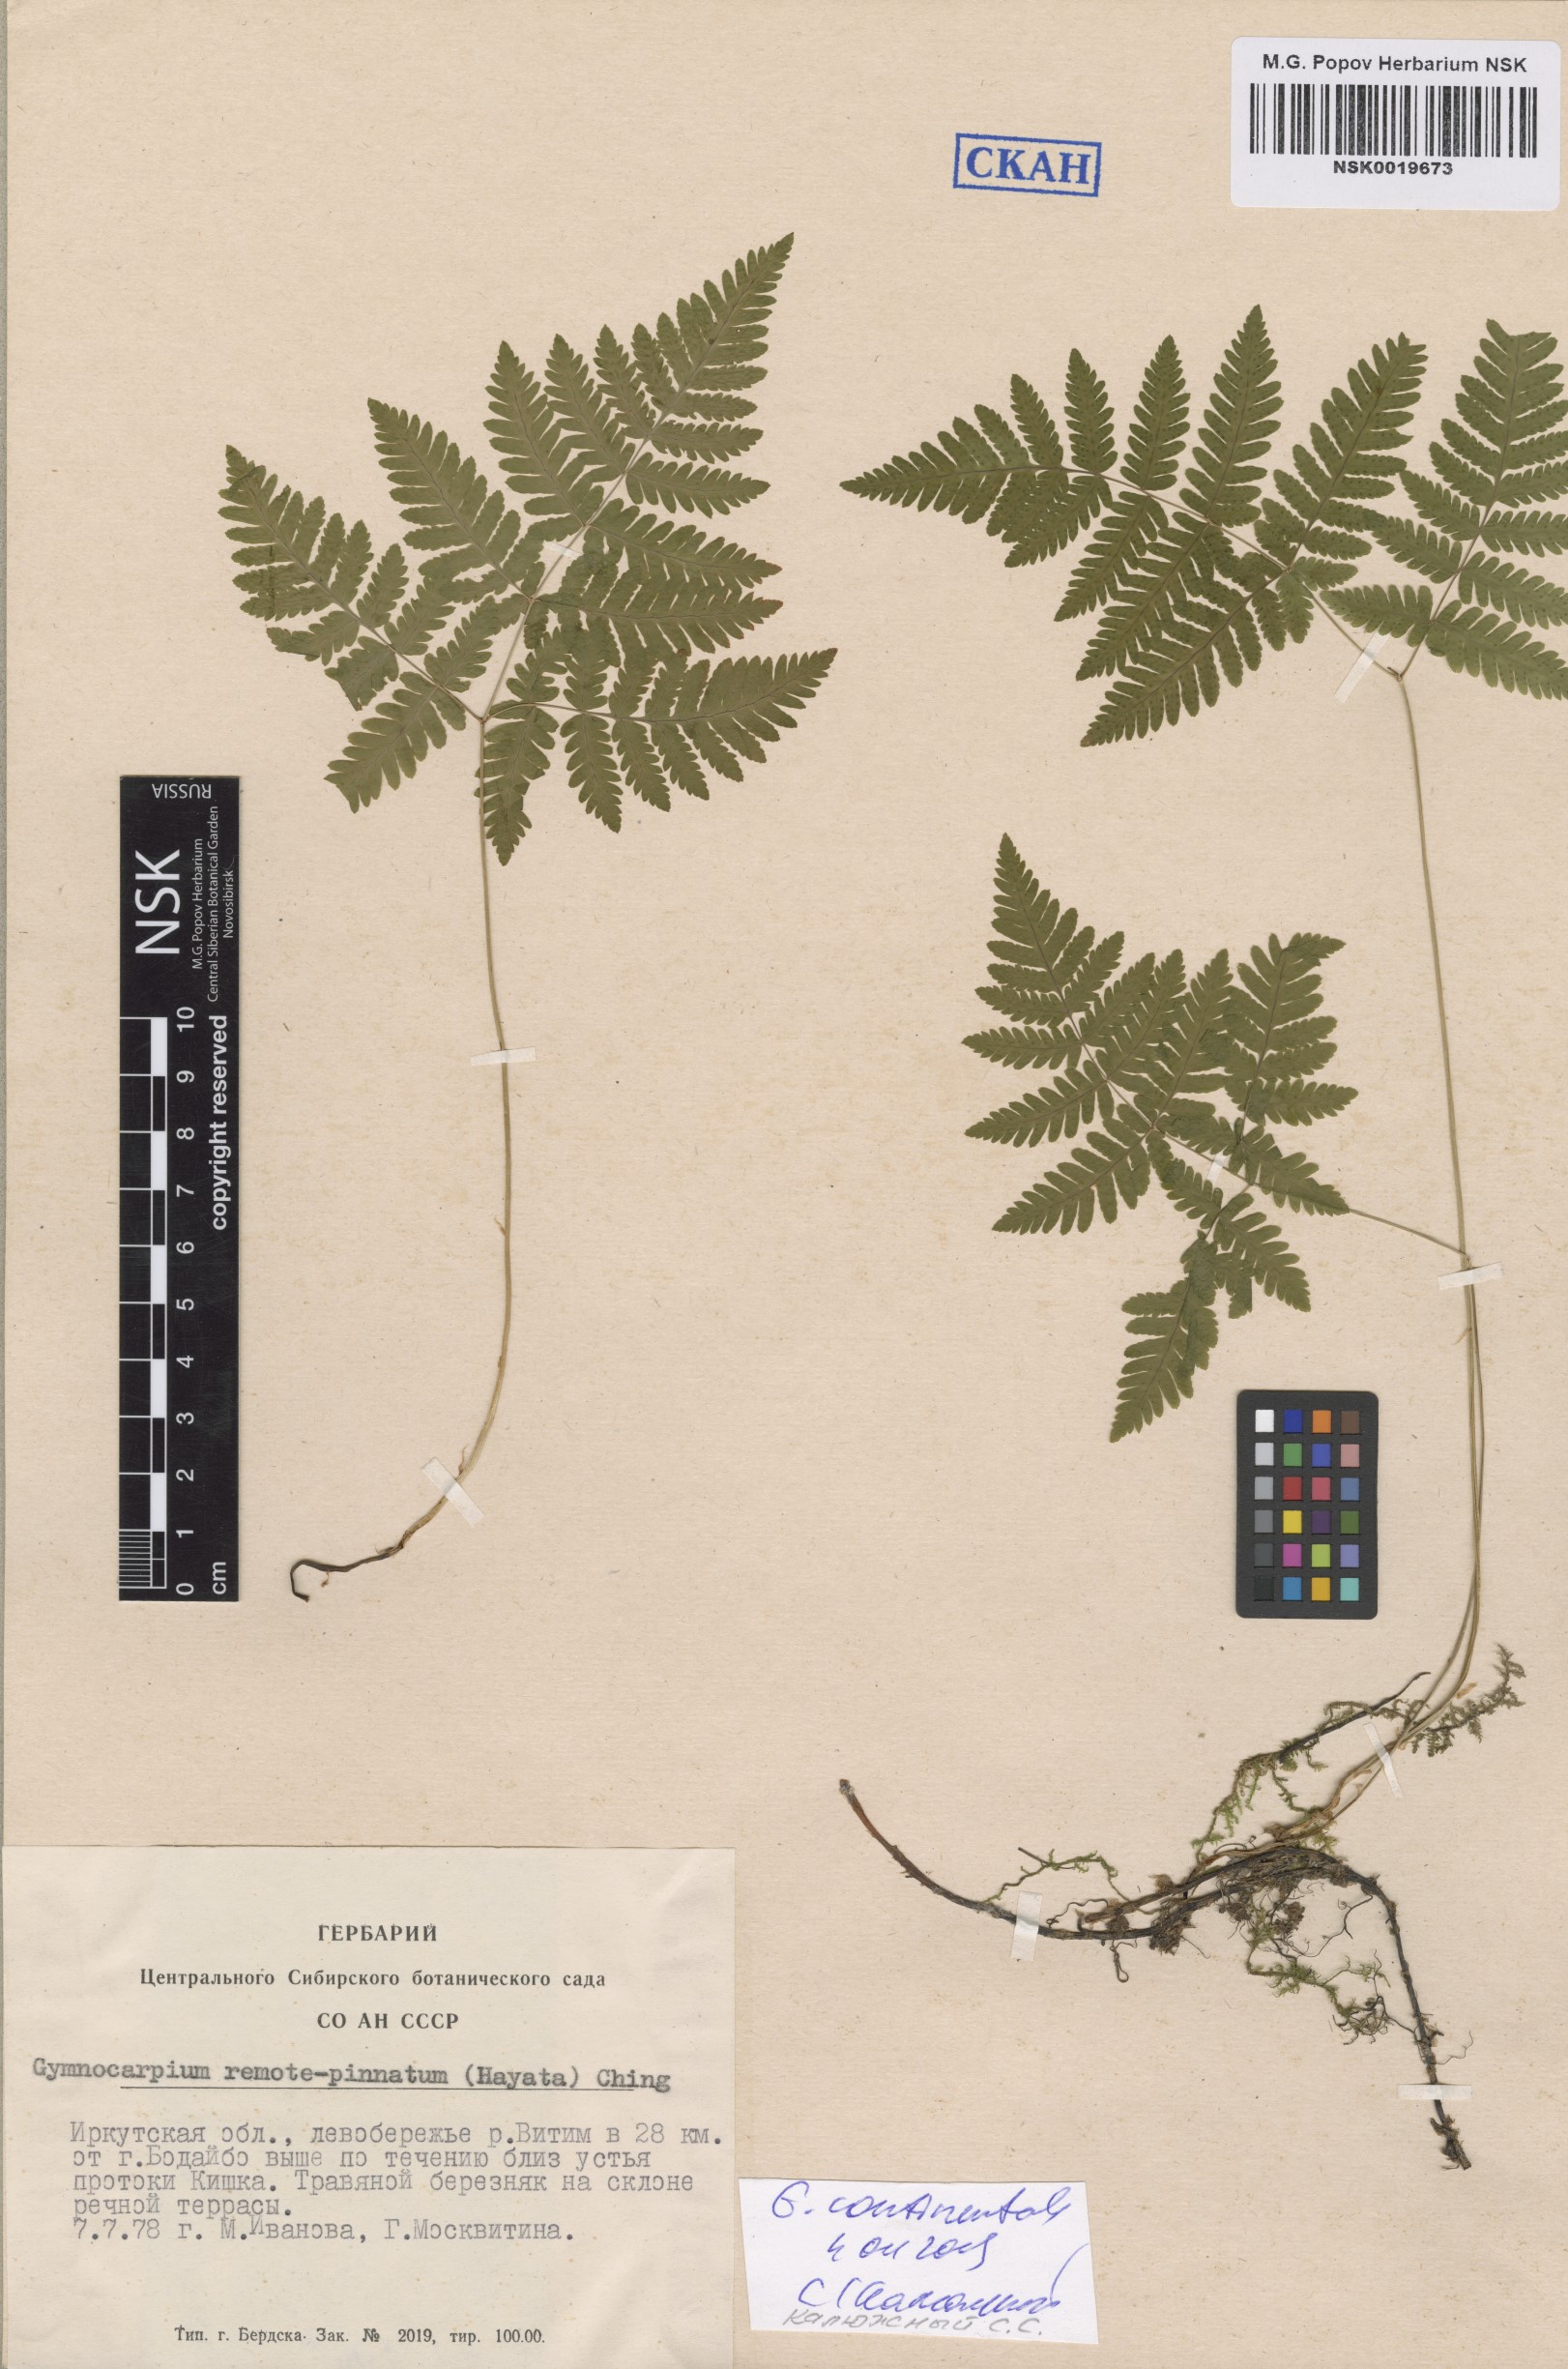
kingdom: Plantae
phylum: Tracheophyta
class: Polypodiopsida
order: Polypodiales
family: Cystopteridaceae
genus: Gymnocarpium
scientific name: Gymnocarpium continentale
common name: Asian oak fern
